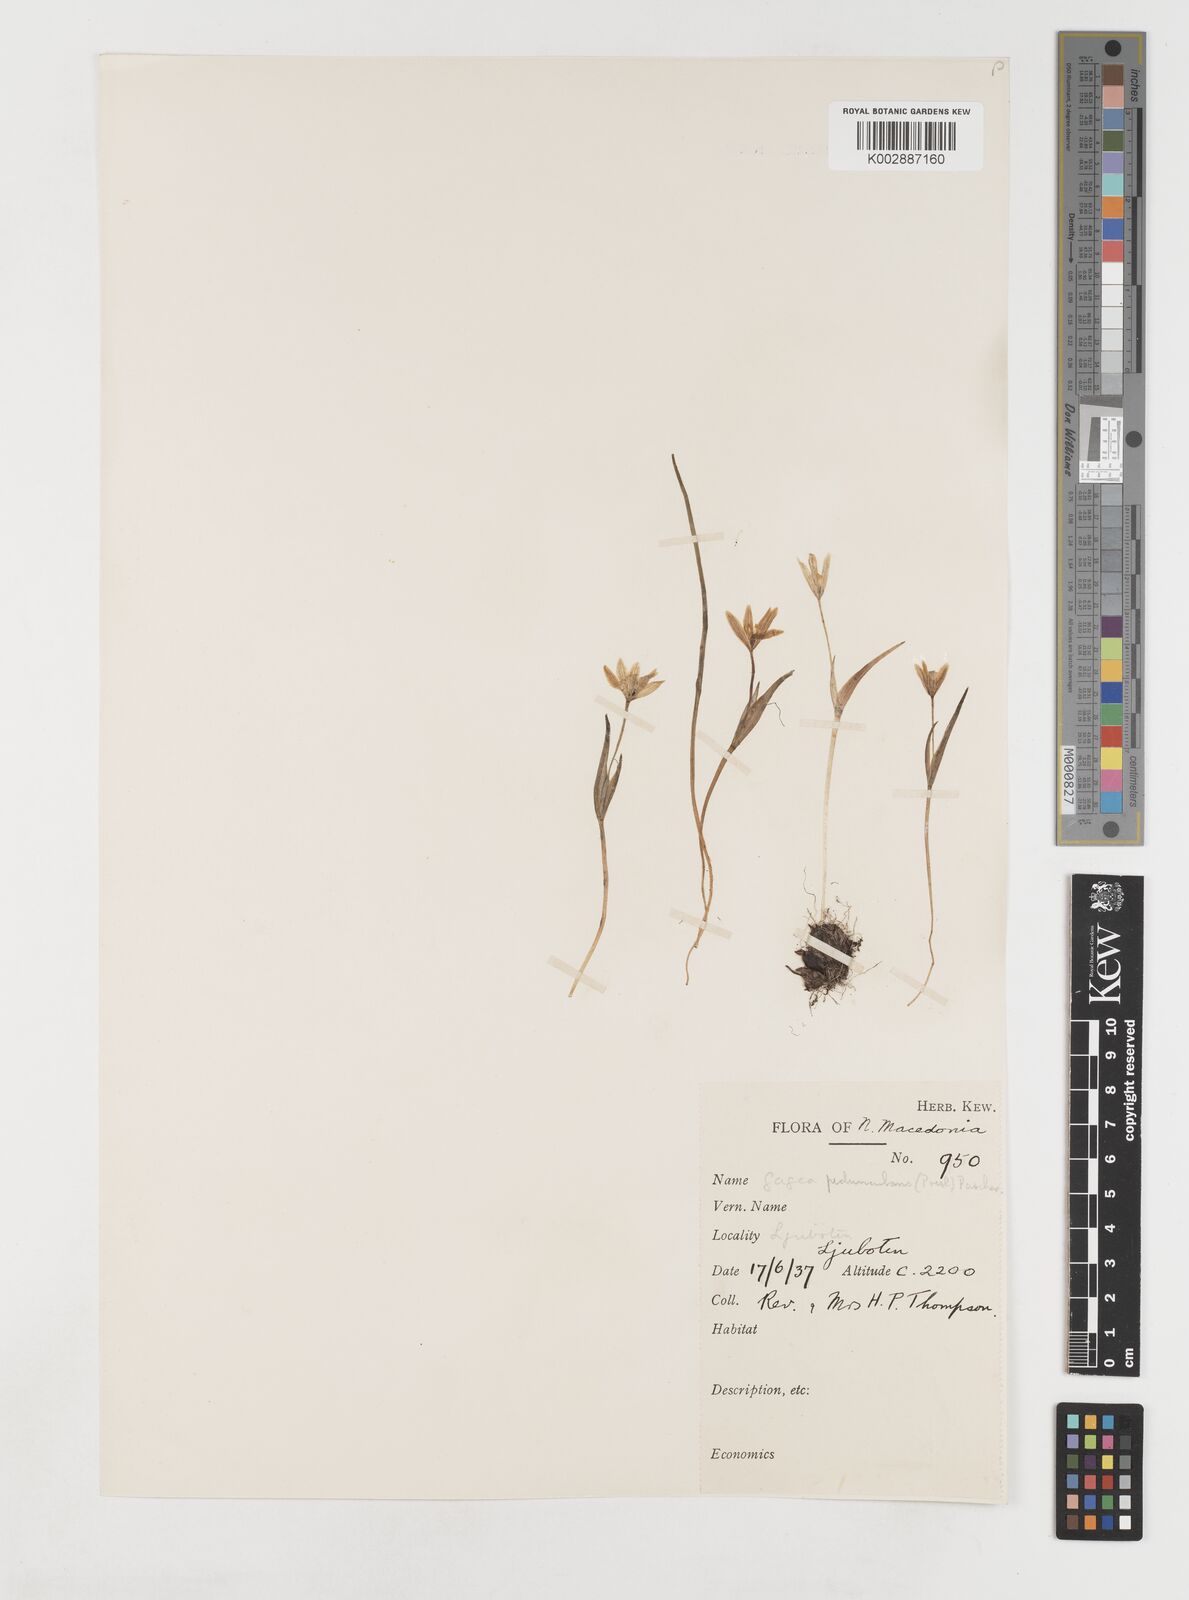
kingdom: Plantae
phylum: Tracheophyta
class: Liliopsida
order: Liliales
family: Liliaceae
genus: Gagea
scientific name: Gagea peduncularis
